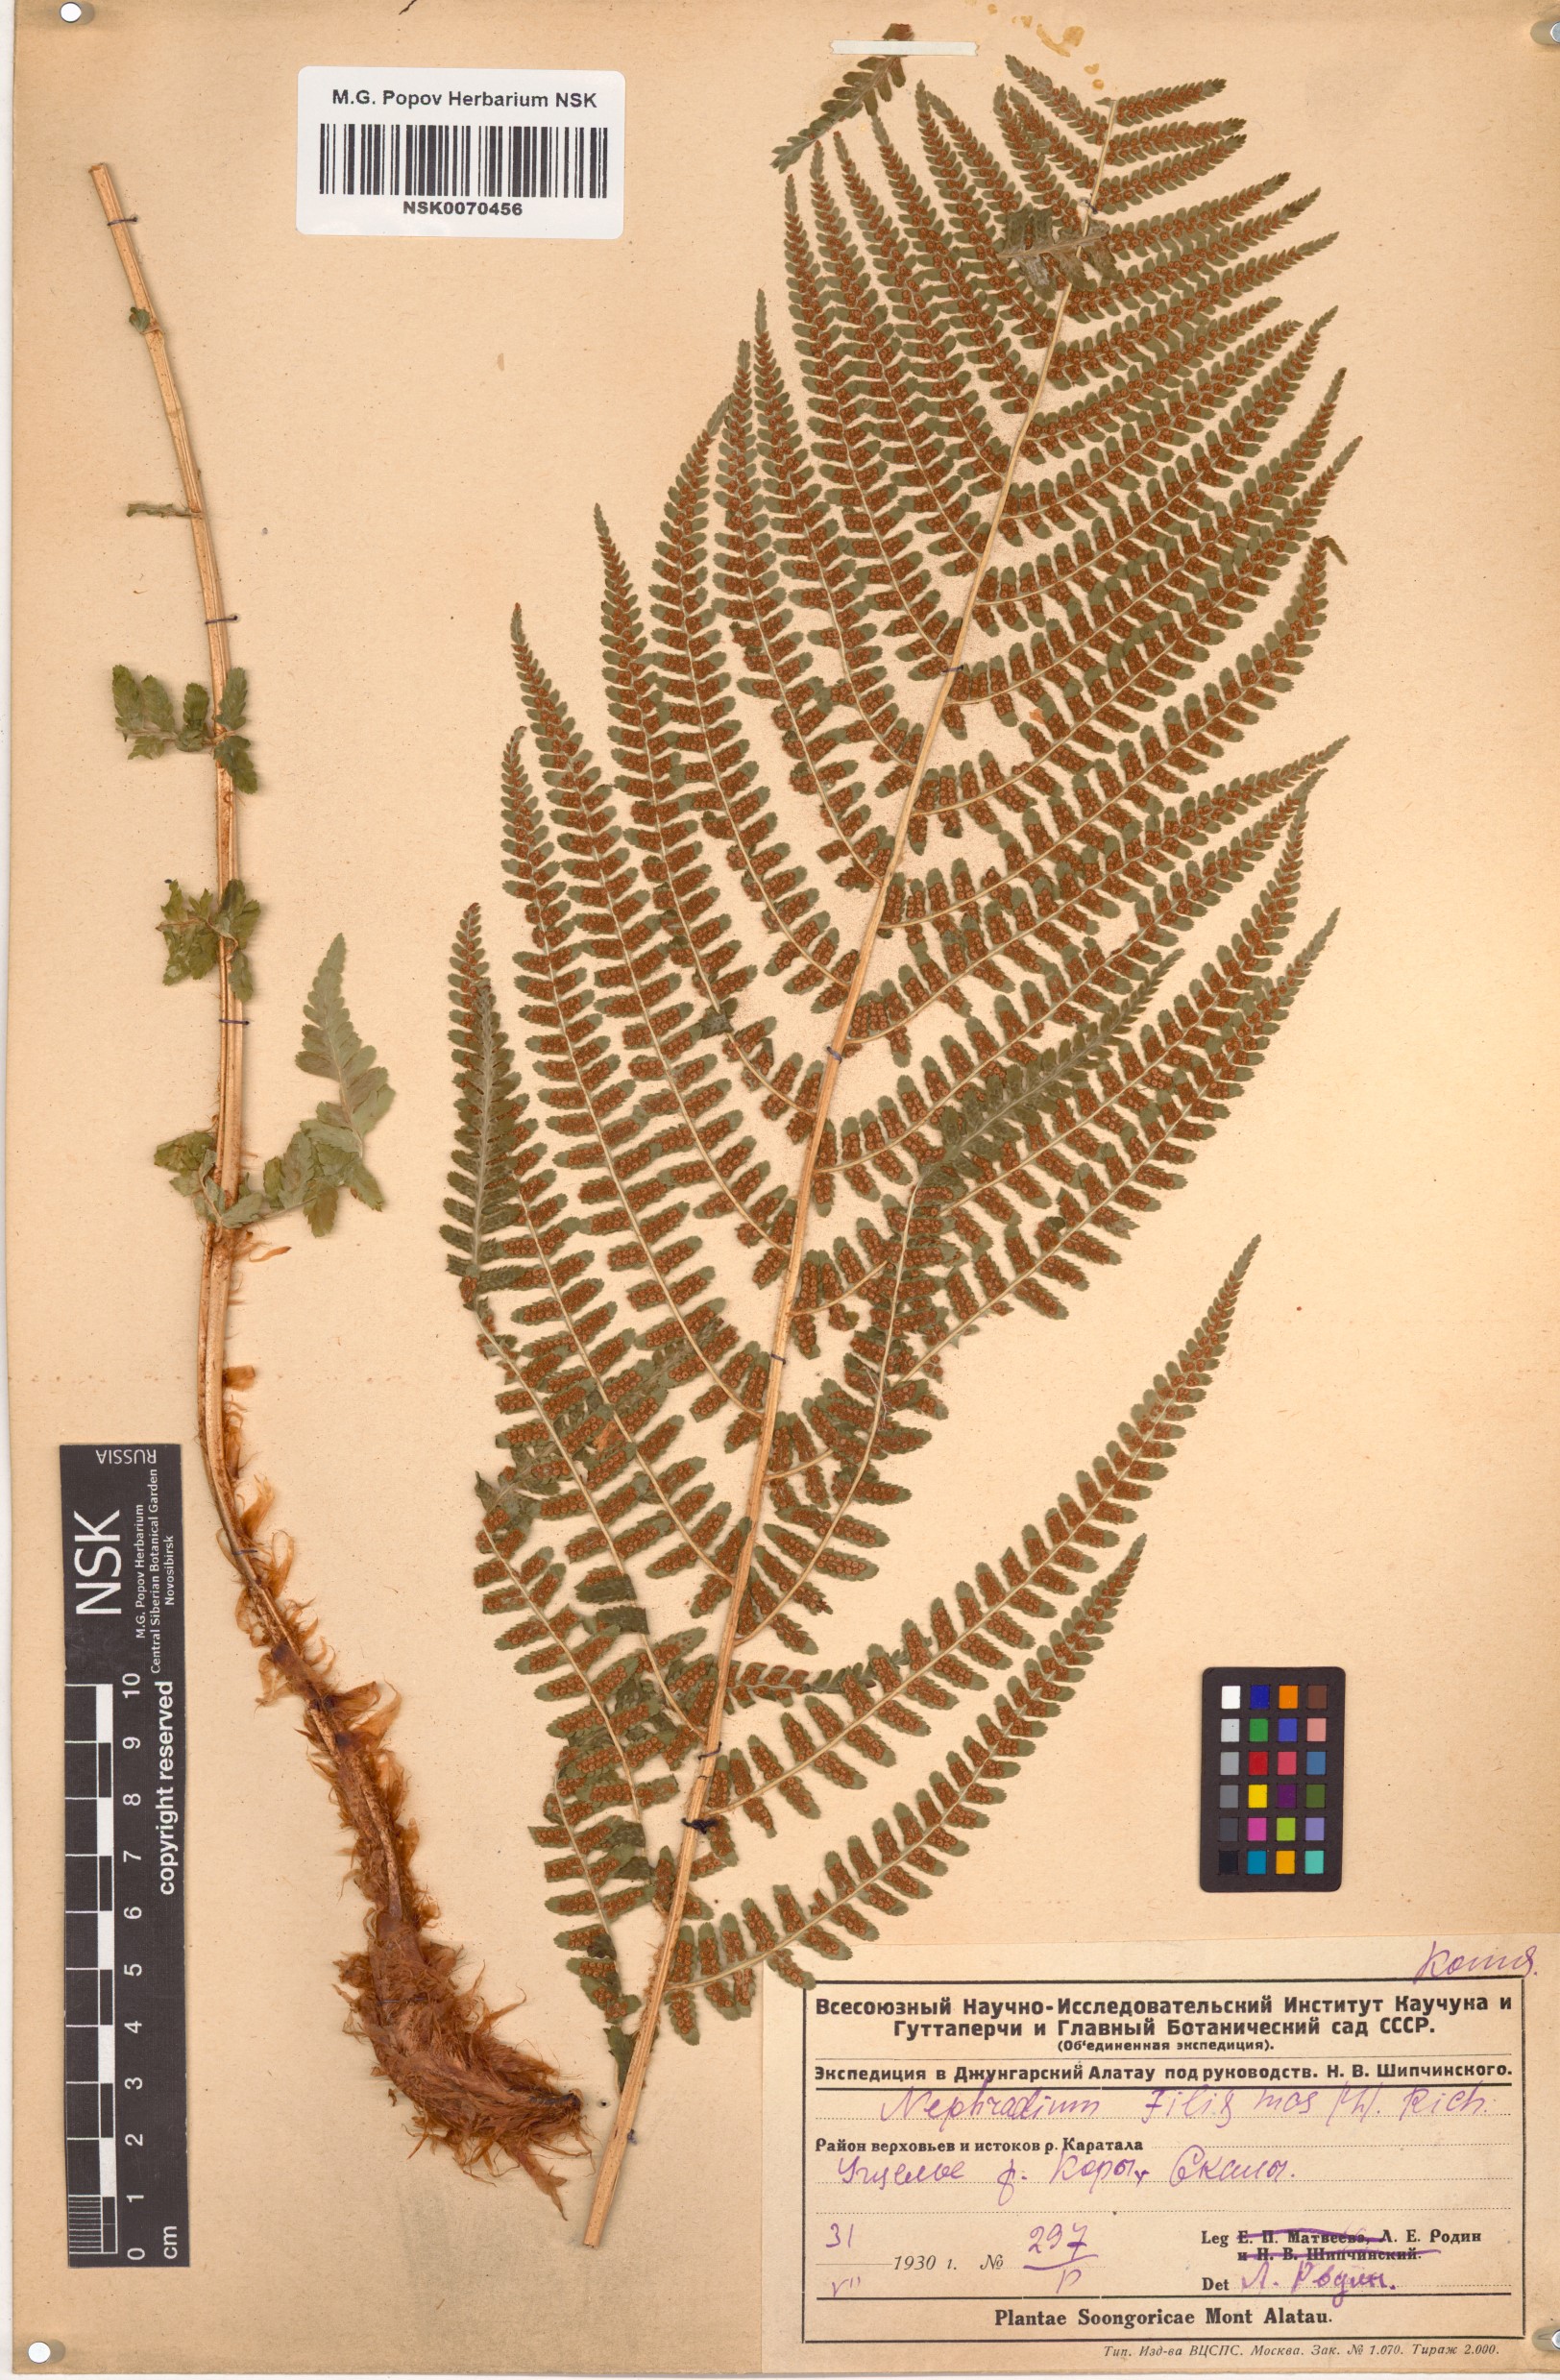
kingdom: Plantae
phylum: Tracheophyta
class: Polypodiopsida
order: Polypodiales
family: Dryopteridaceae
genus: Dryopteris
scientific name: Dryopteris filix-mas
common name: Male fern
